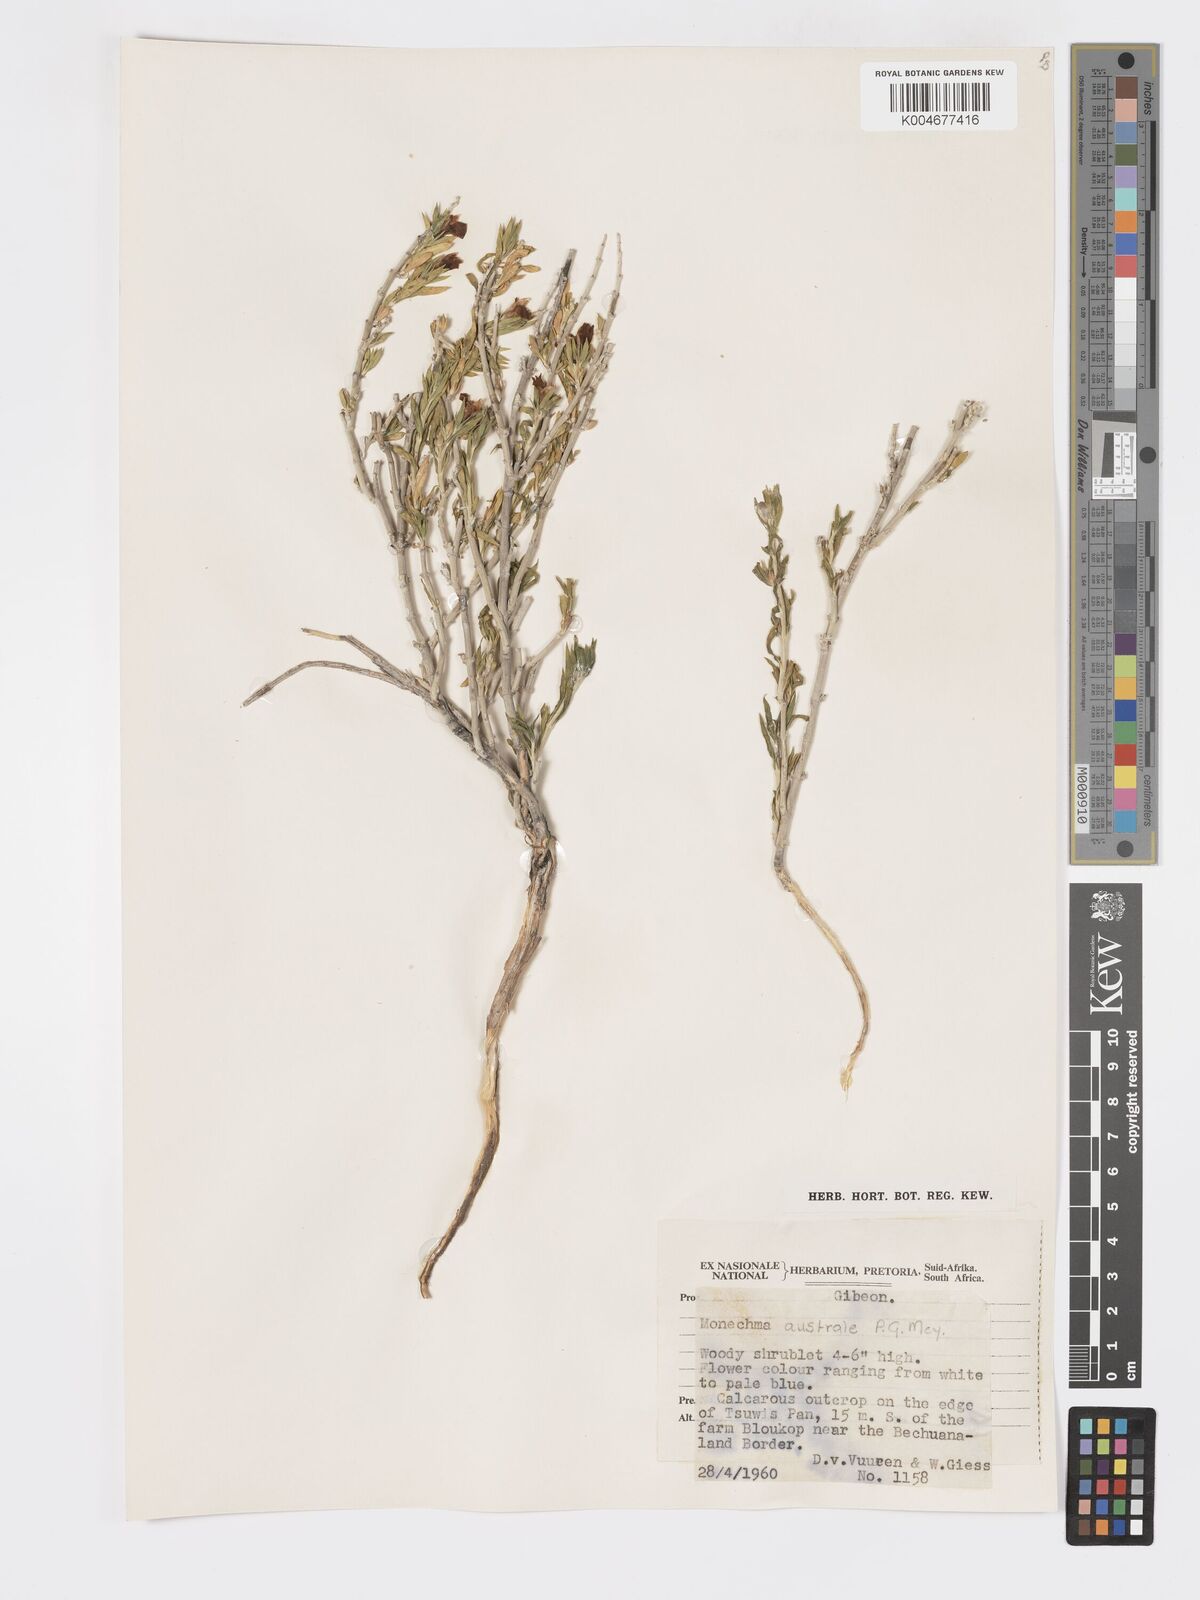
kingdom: Plantae
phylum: Tracheophyta
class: Magnoliopsida
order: Lamiales
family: Acanthaceae
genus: Pogonospermum
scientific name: Pogonospermum
